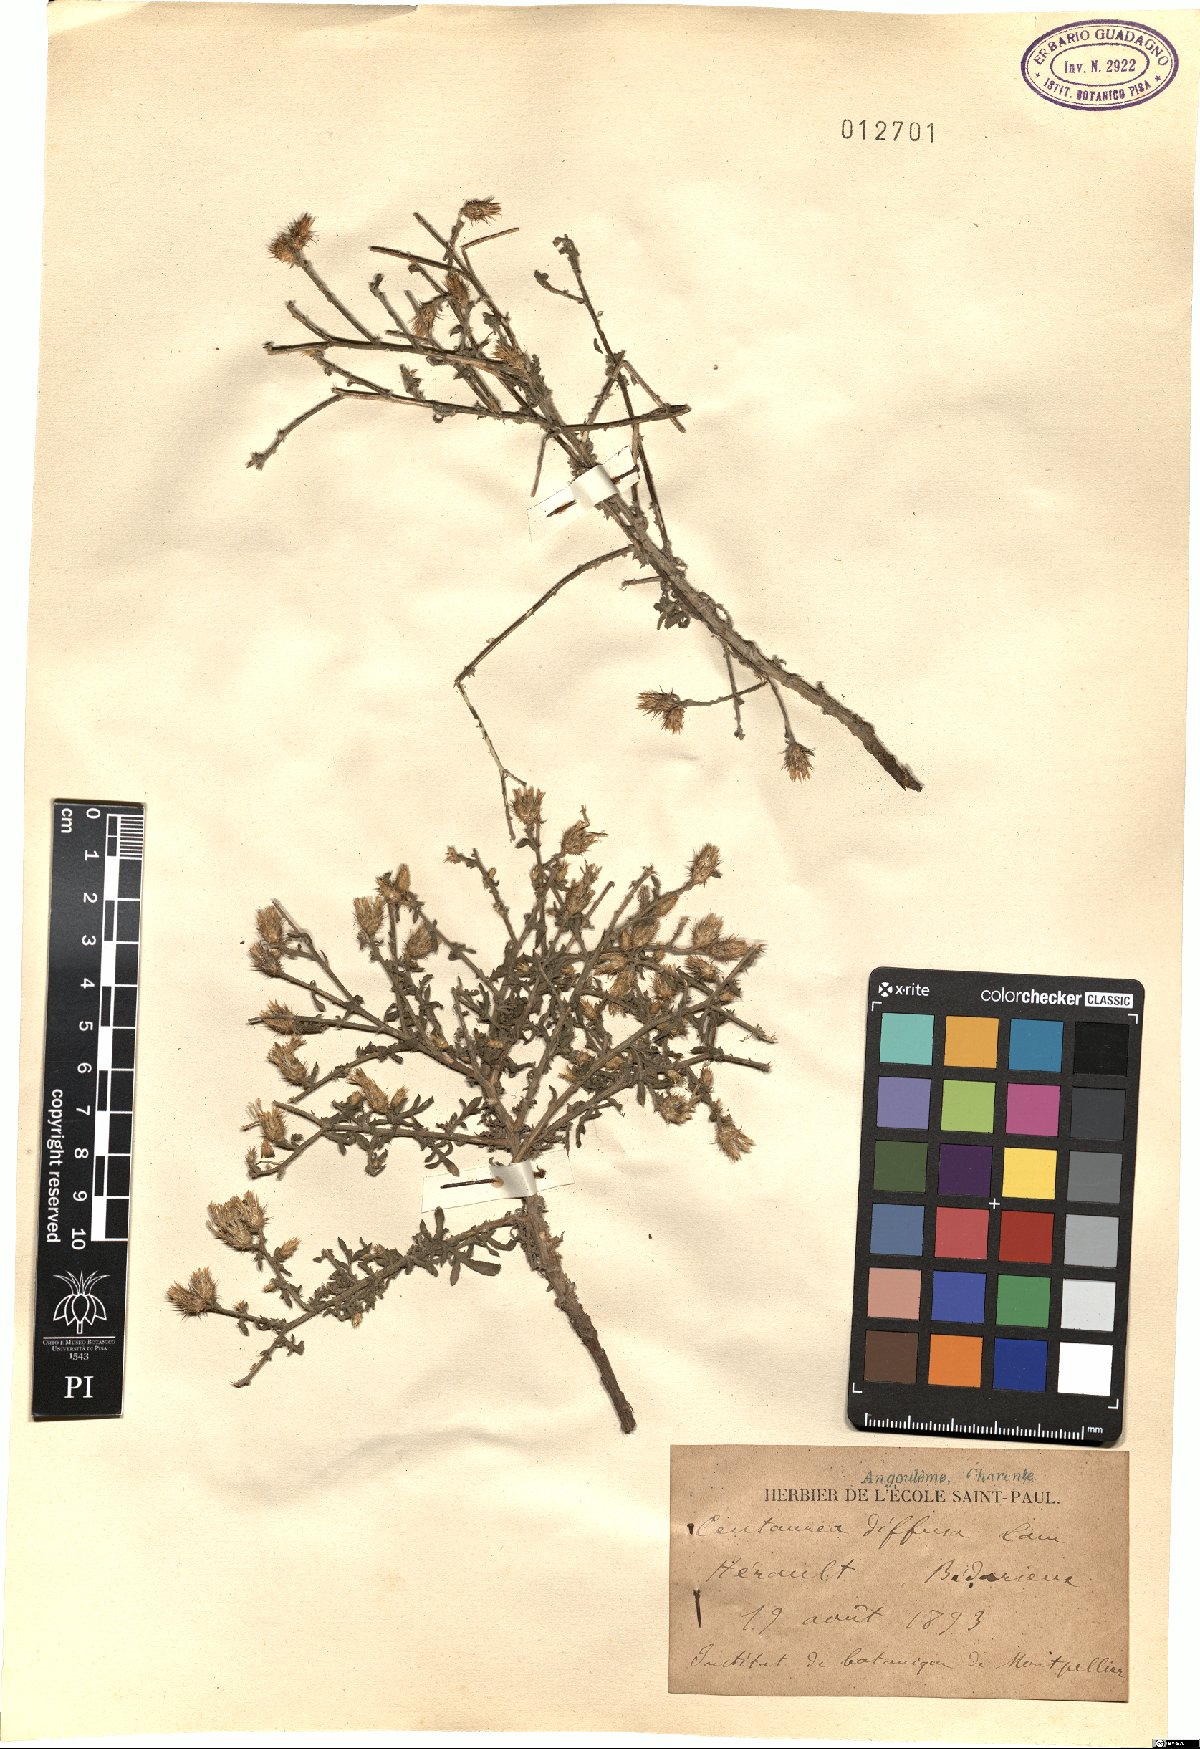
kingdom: Plantae
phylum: Tracheophyta
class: Magnoliopsida
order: Asterales
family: Asteraceae
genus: Centaurea
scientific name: Centaurea diffusa
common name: Diffuse knapweed
